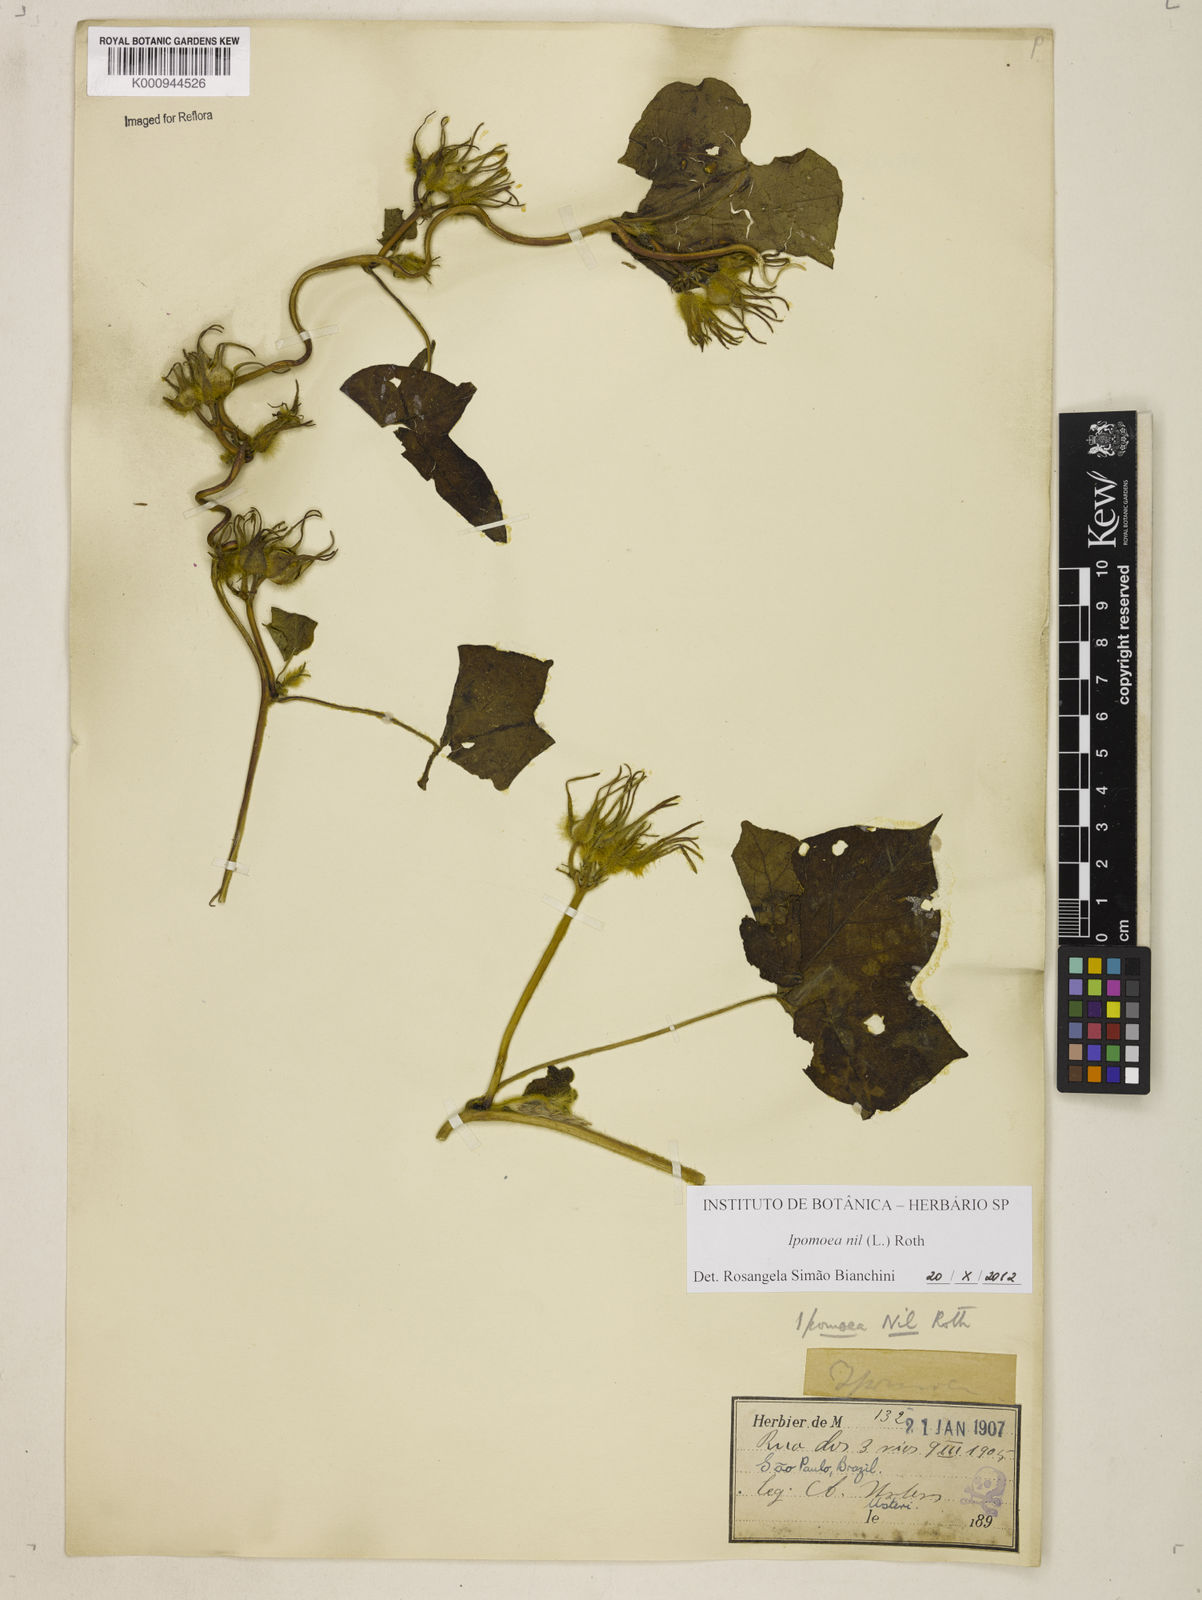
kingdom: Plantae
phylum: Tracheophyta
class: Magnoliopsida
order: Solanales
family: Convolvulaceae
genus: Ipomoea
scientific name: Ipomoea nil
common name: Japanese morning-glory
